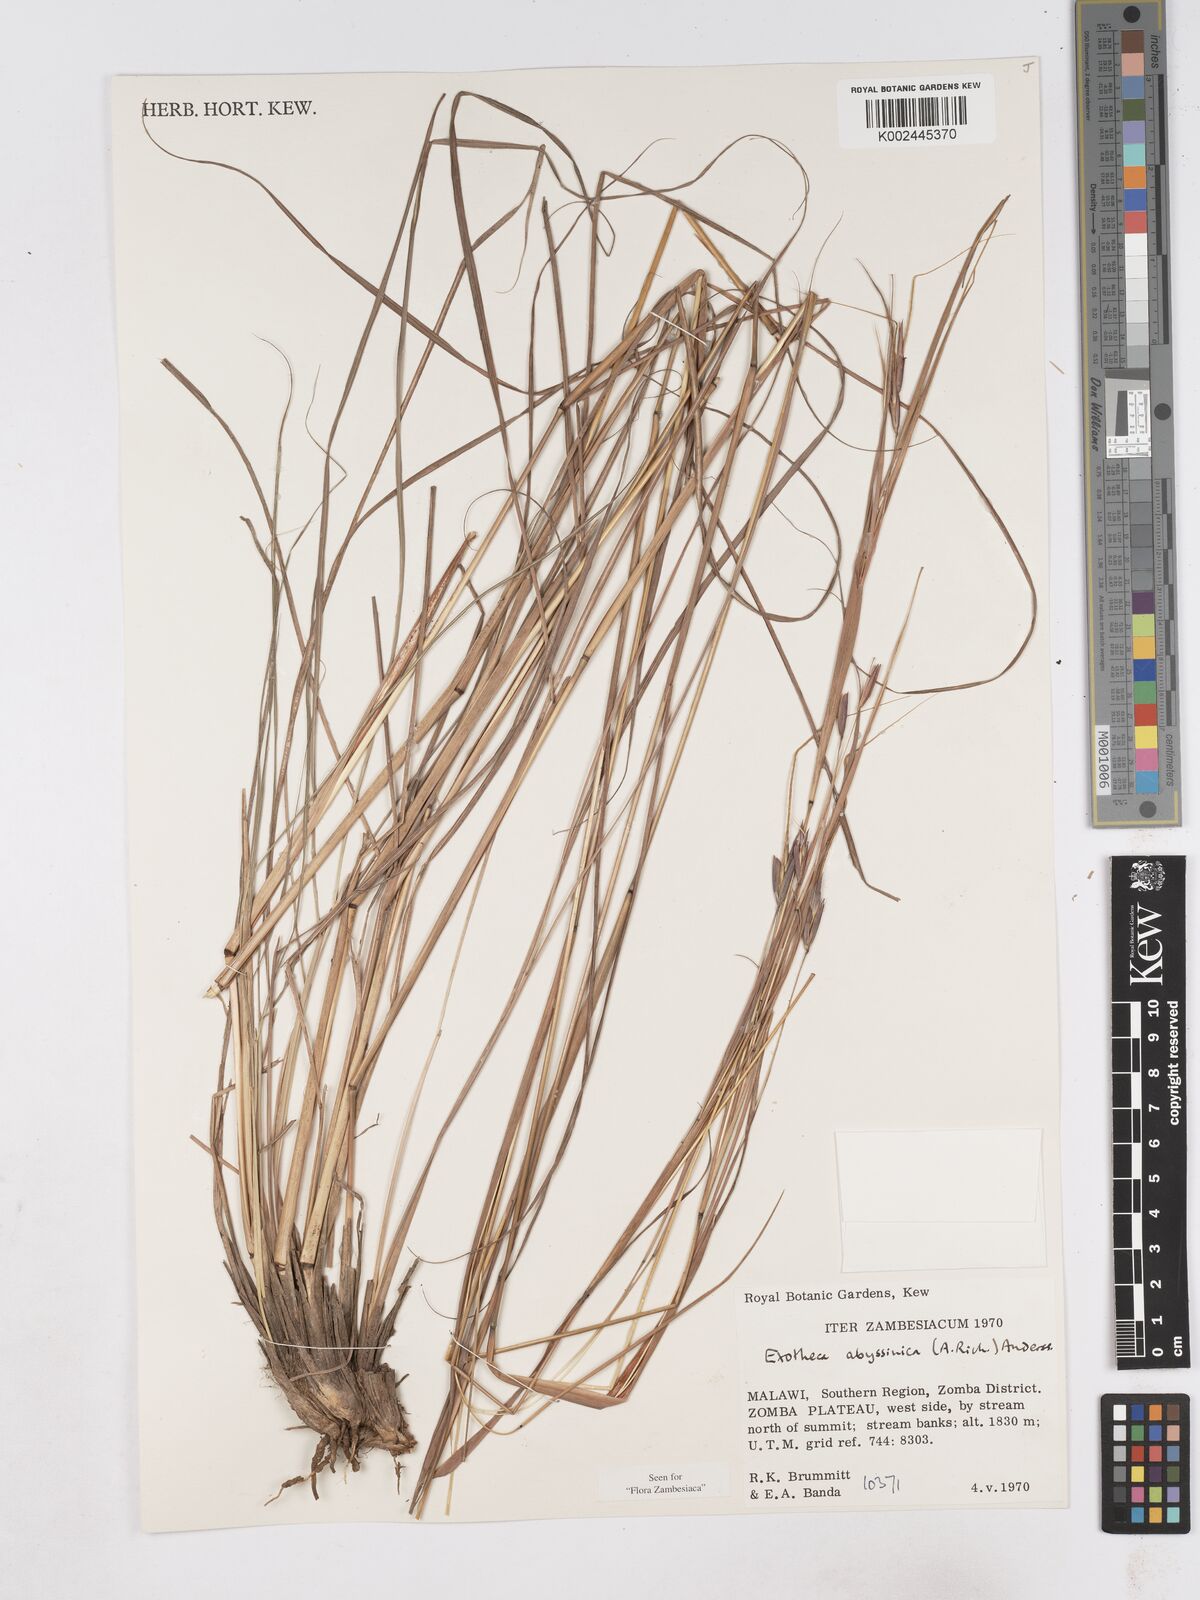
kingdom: Plantae
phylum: Tracheophyta
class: Liliopsida
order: Poales
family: Poaceae
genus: Exotheca
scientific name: Exotheca abyssinica
